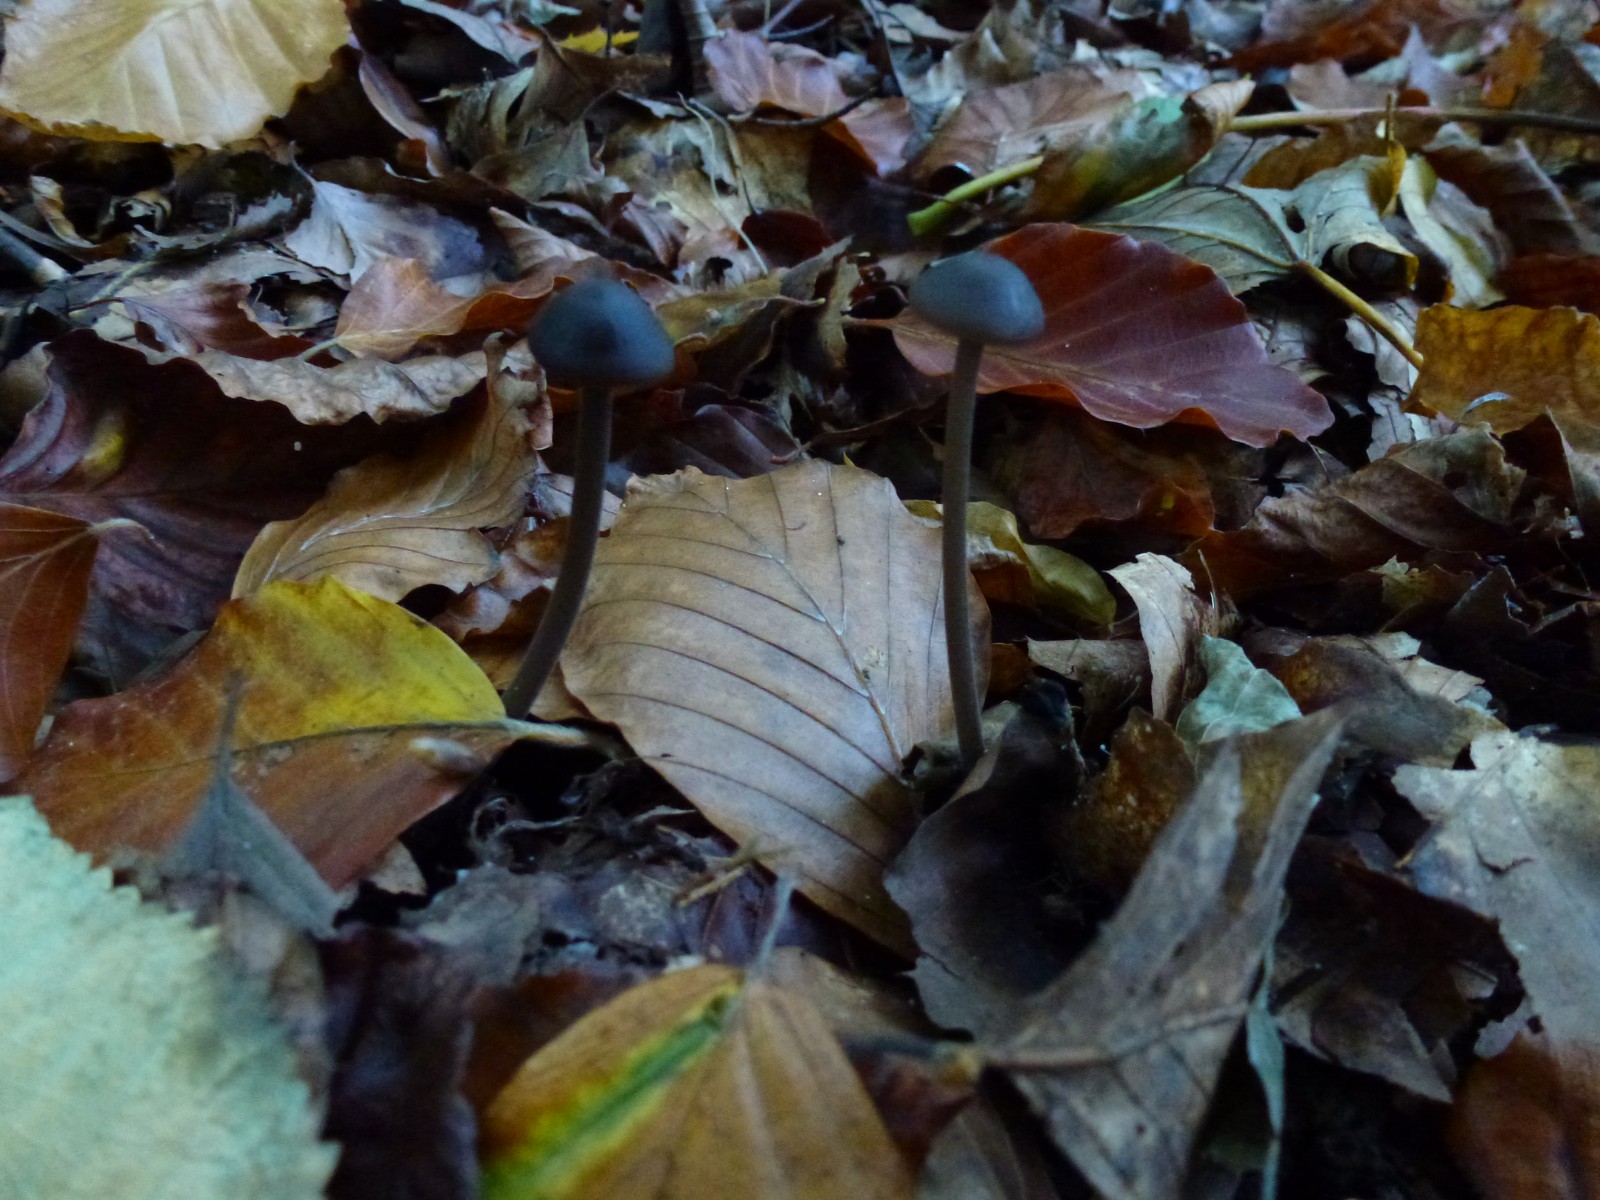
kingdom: Fungi
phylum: Basidiomycota
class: Agaricomycetes
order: Agaricales
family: Omphalotaceae
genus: Mycetinis
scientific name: Mycetinis alliaceus
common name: stor løghat
